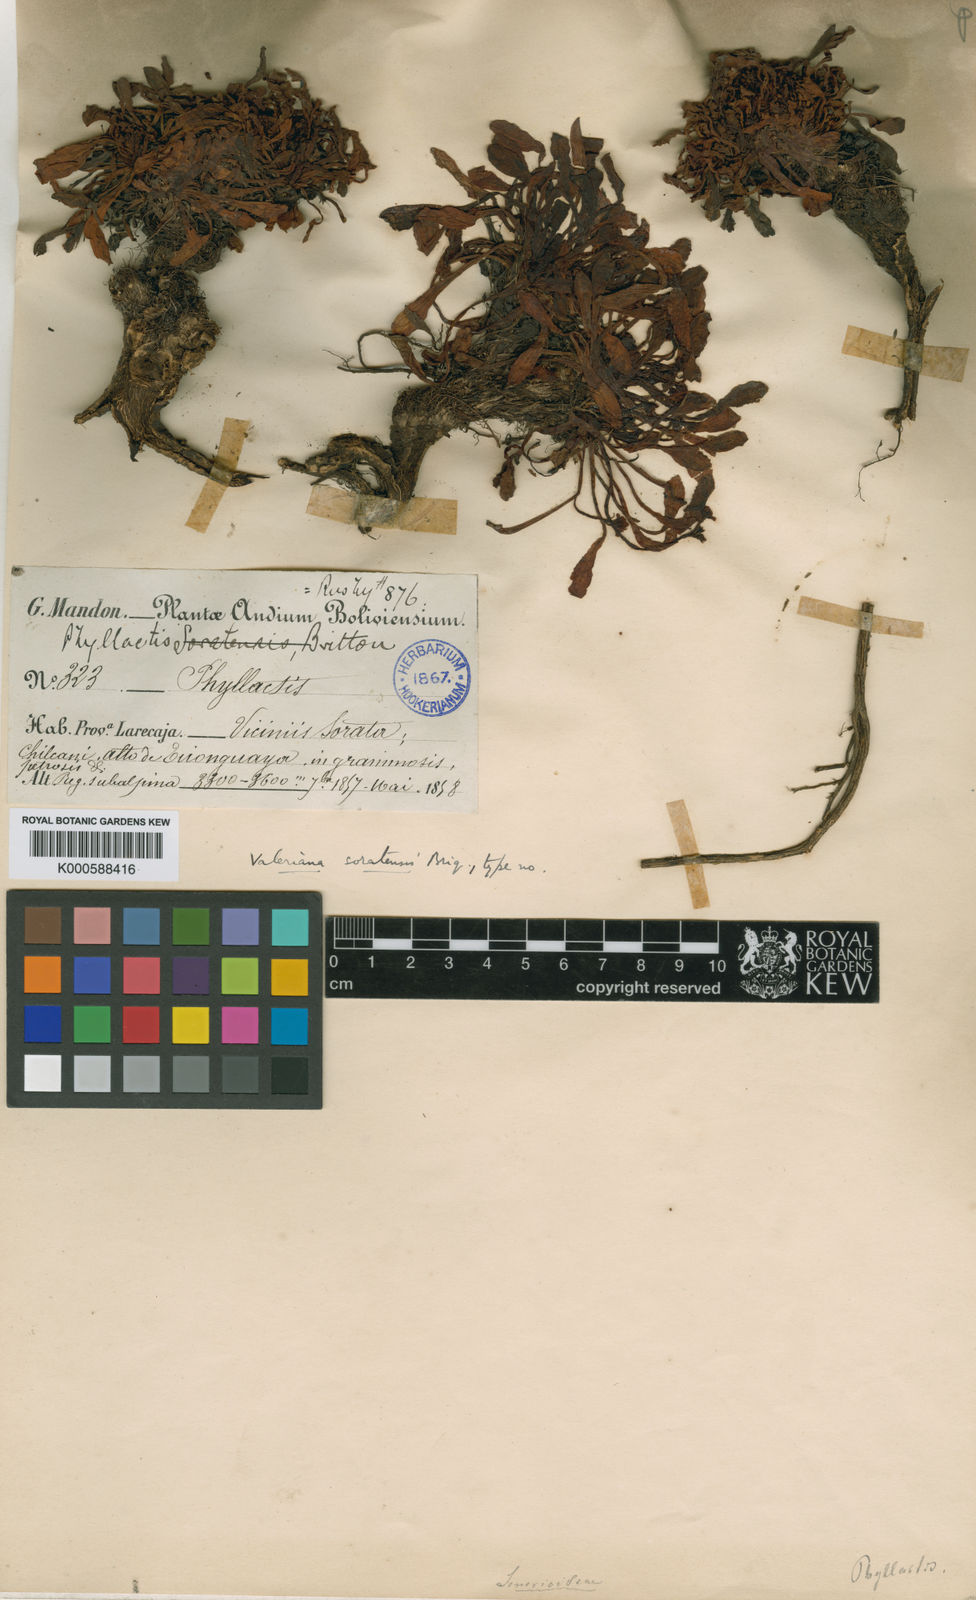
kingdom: Plantae
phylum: Tracheophyta
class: Magnoliopsida
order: Dipsacales
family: Caprifoliaceae
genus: Valeriana
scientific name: Valeriana mapirensis
